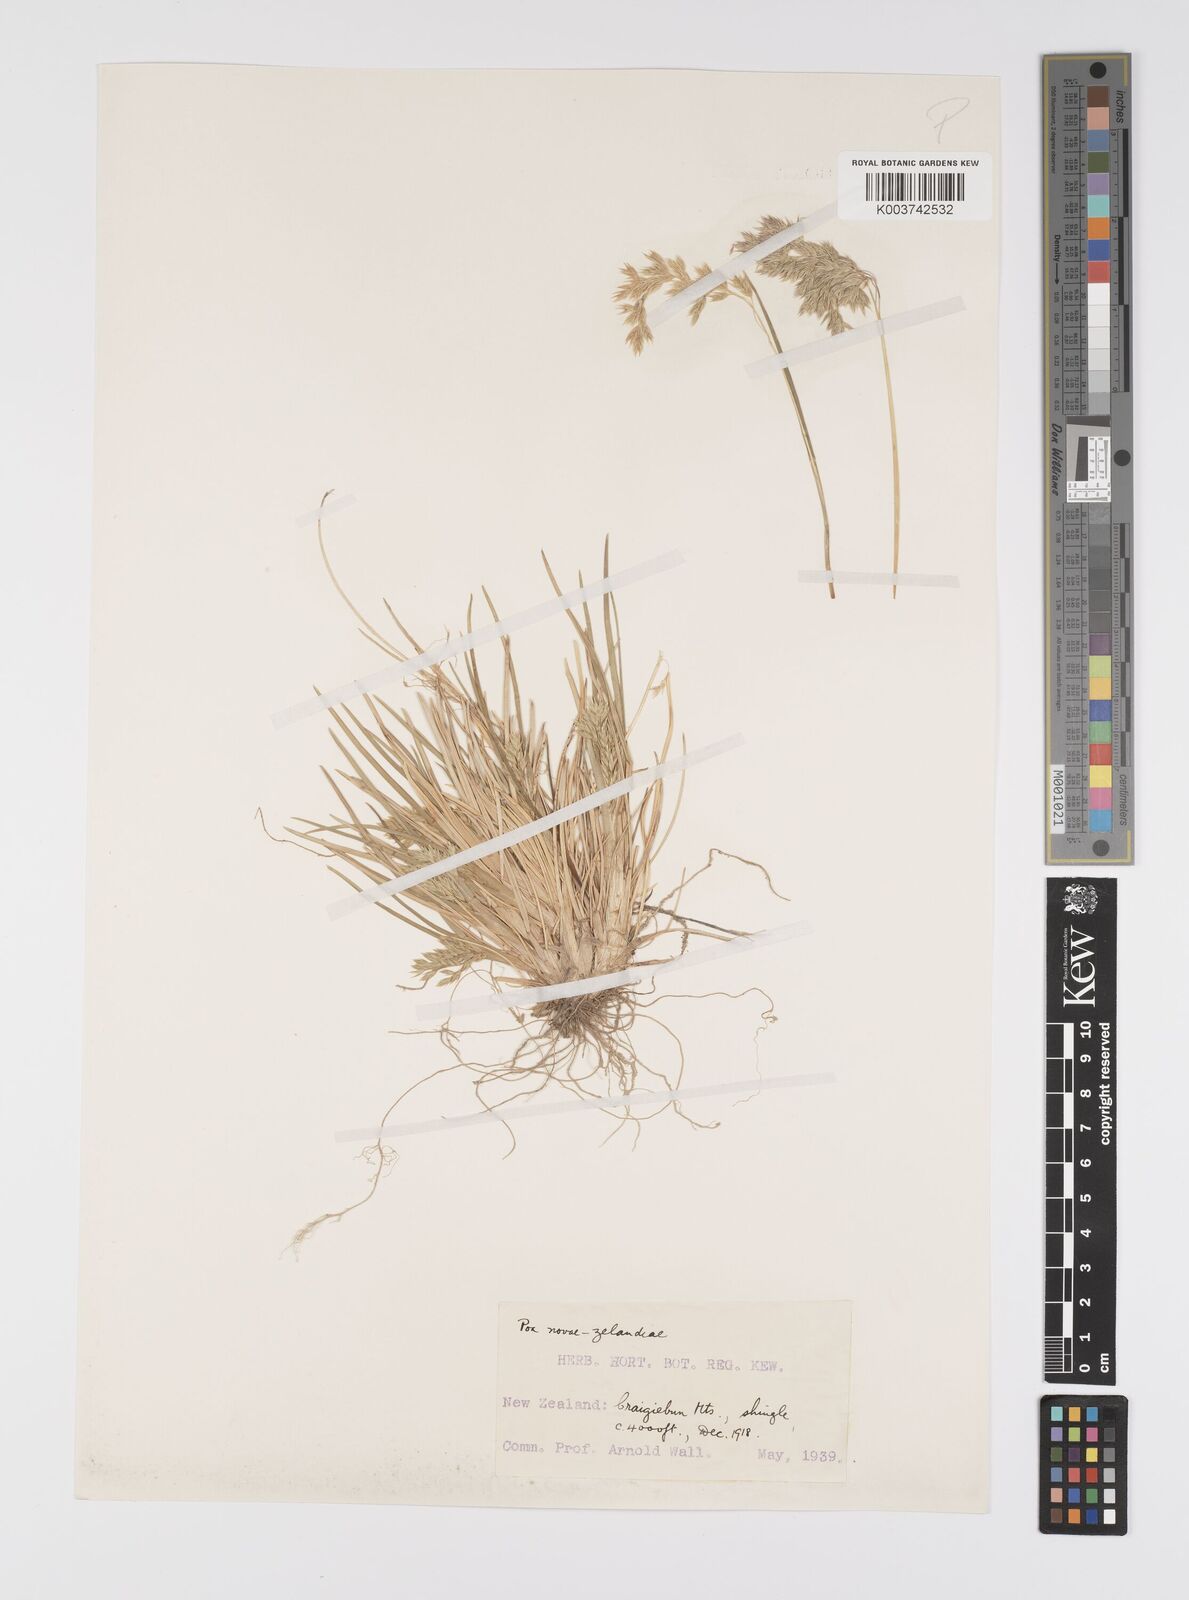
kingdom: Plantae
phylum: Tracheophyta
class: Liliopsida
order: Poales
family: Poaceae
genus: Poa
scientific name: Poa novae-zelandiae
